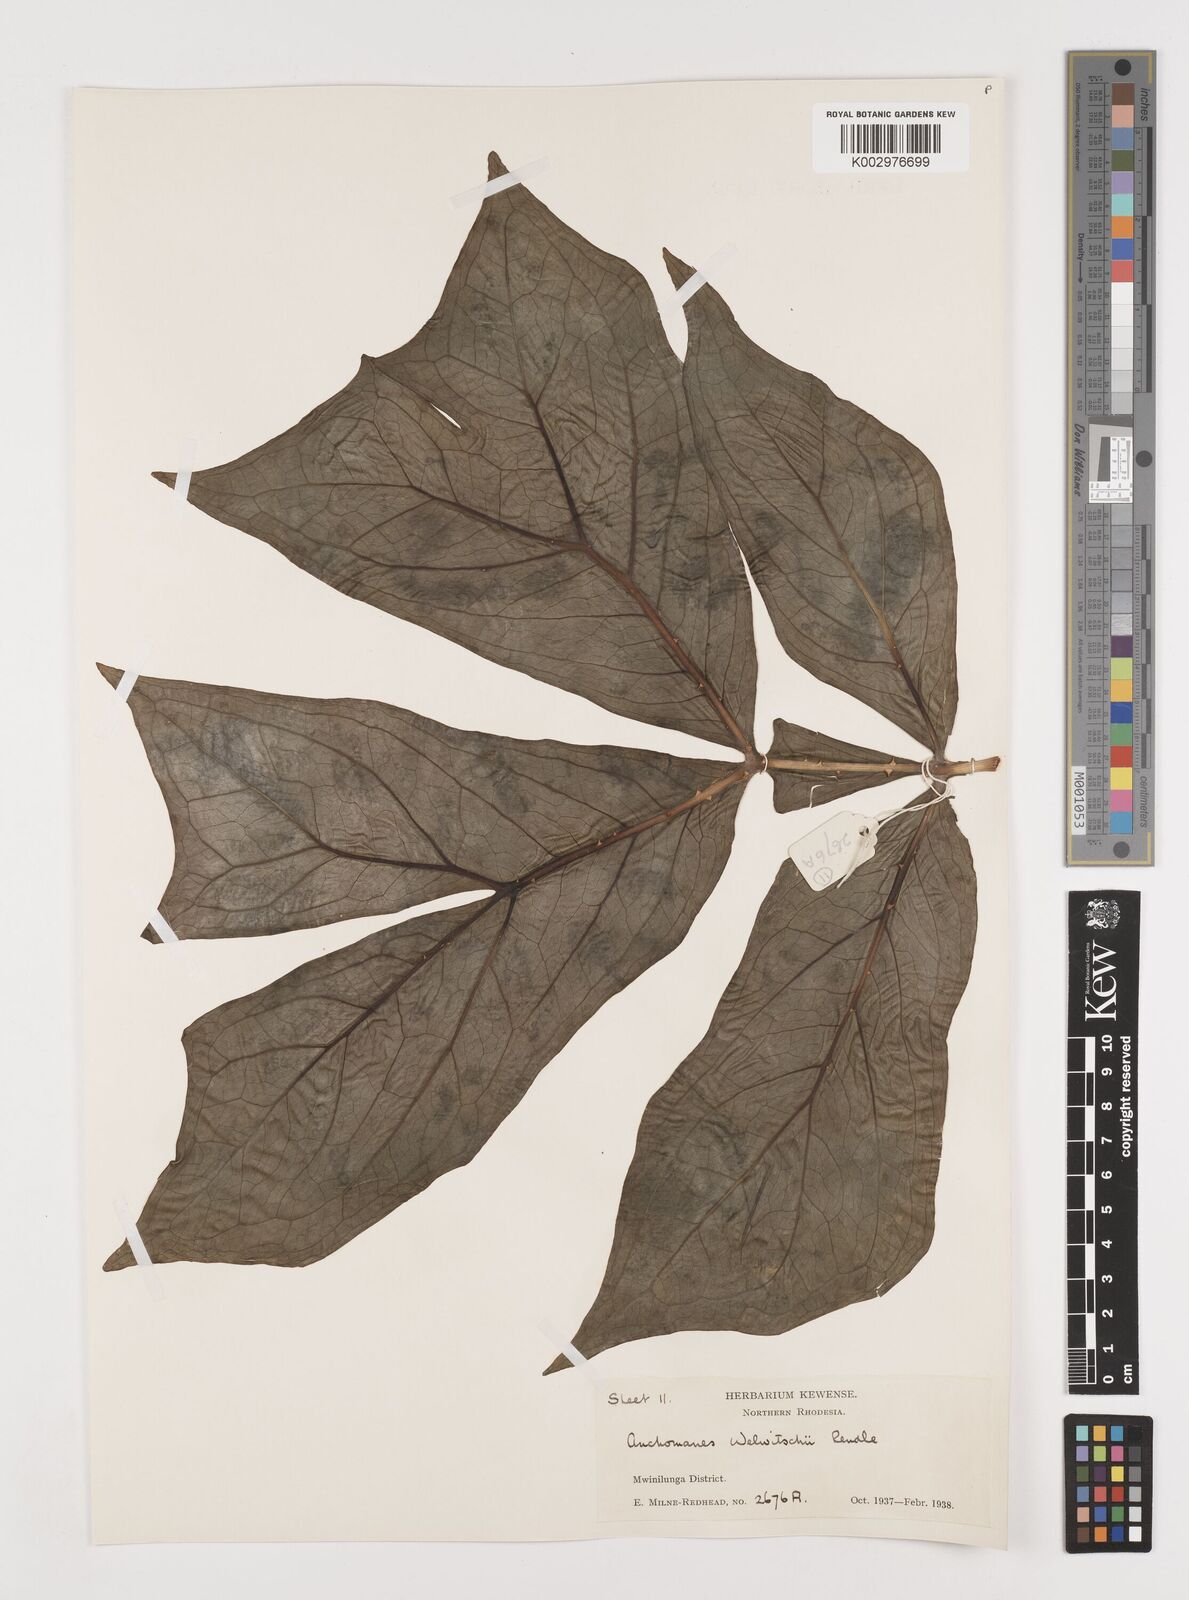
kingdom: Plantae
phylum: Tracheophyta
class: Liliopsida
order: Alismatales
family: Araceae
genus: Anchomanes
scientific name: Anchomanes difformis
